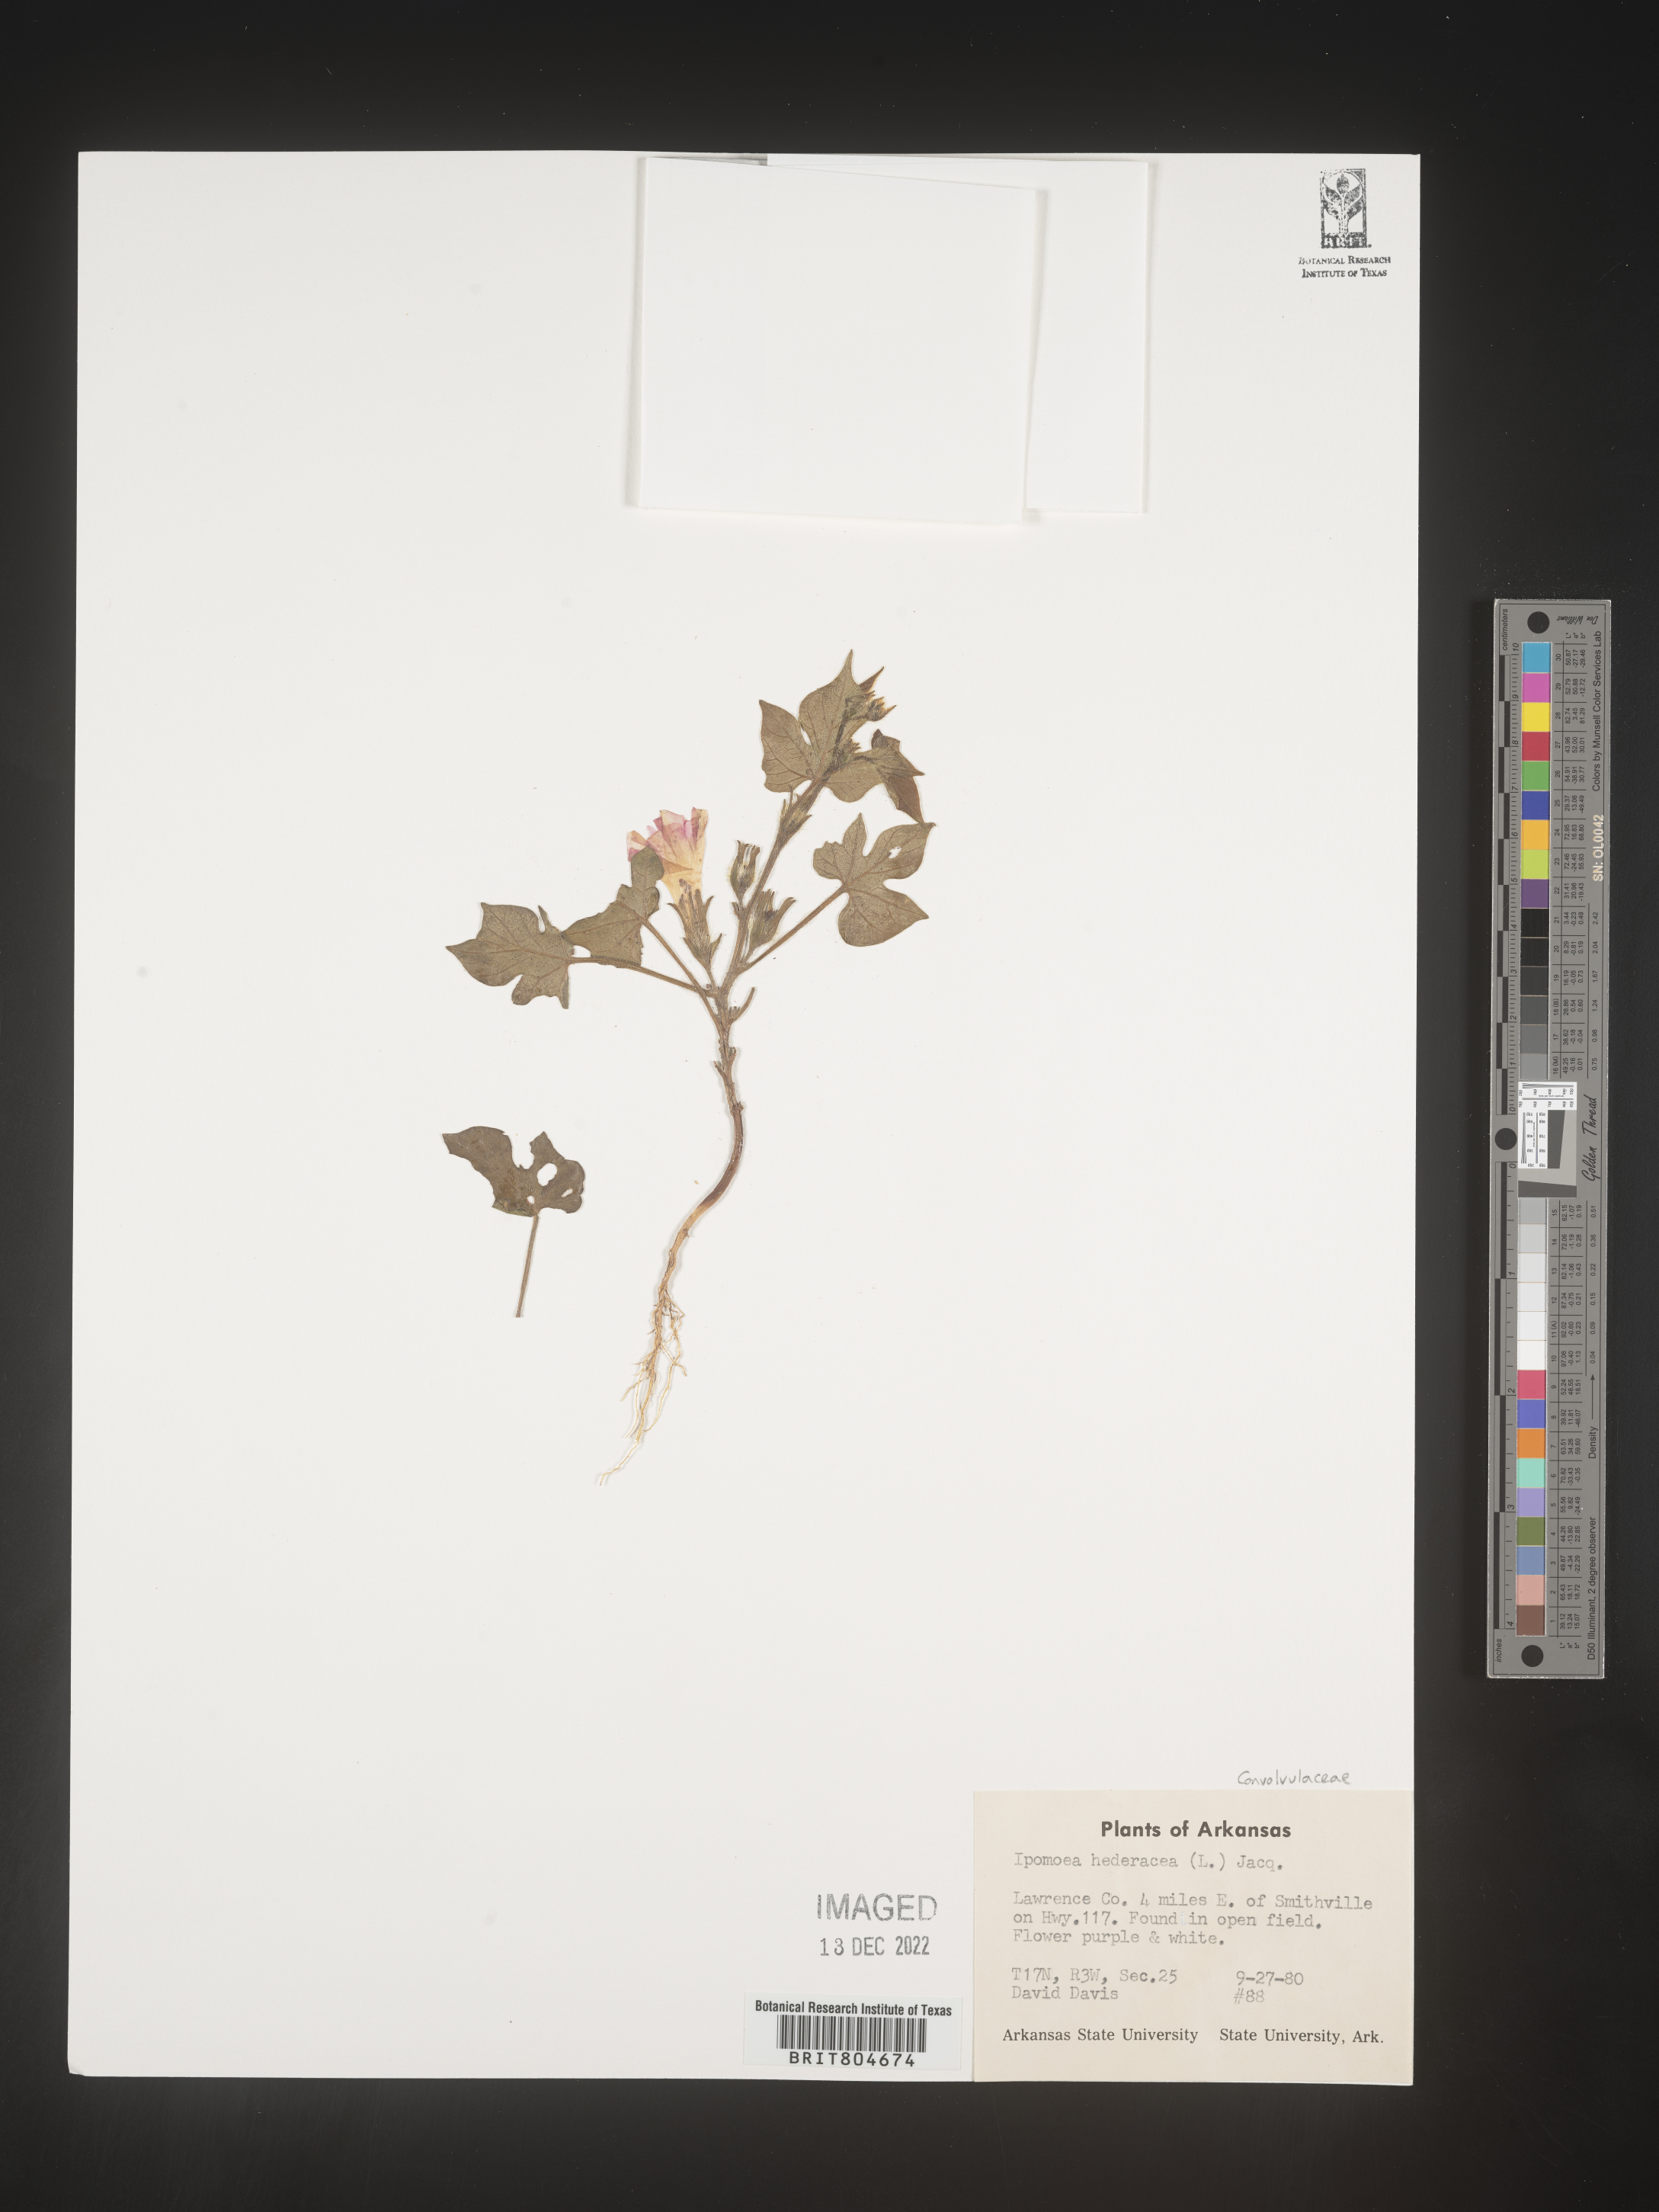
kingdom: Plantae
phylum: Tracheophyta
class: Magnoliopsida
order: Solanales
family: Convolvulaceae
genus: Ipomoea
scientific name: Ipomoea hederacea
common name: Ivy-leaved morning-glory
